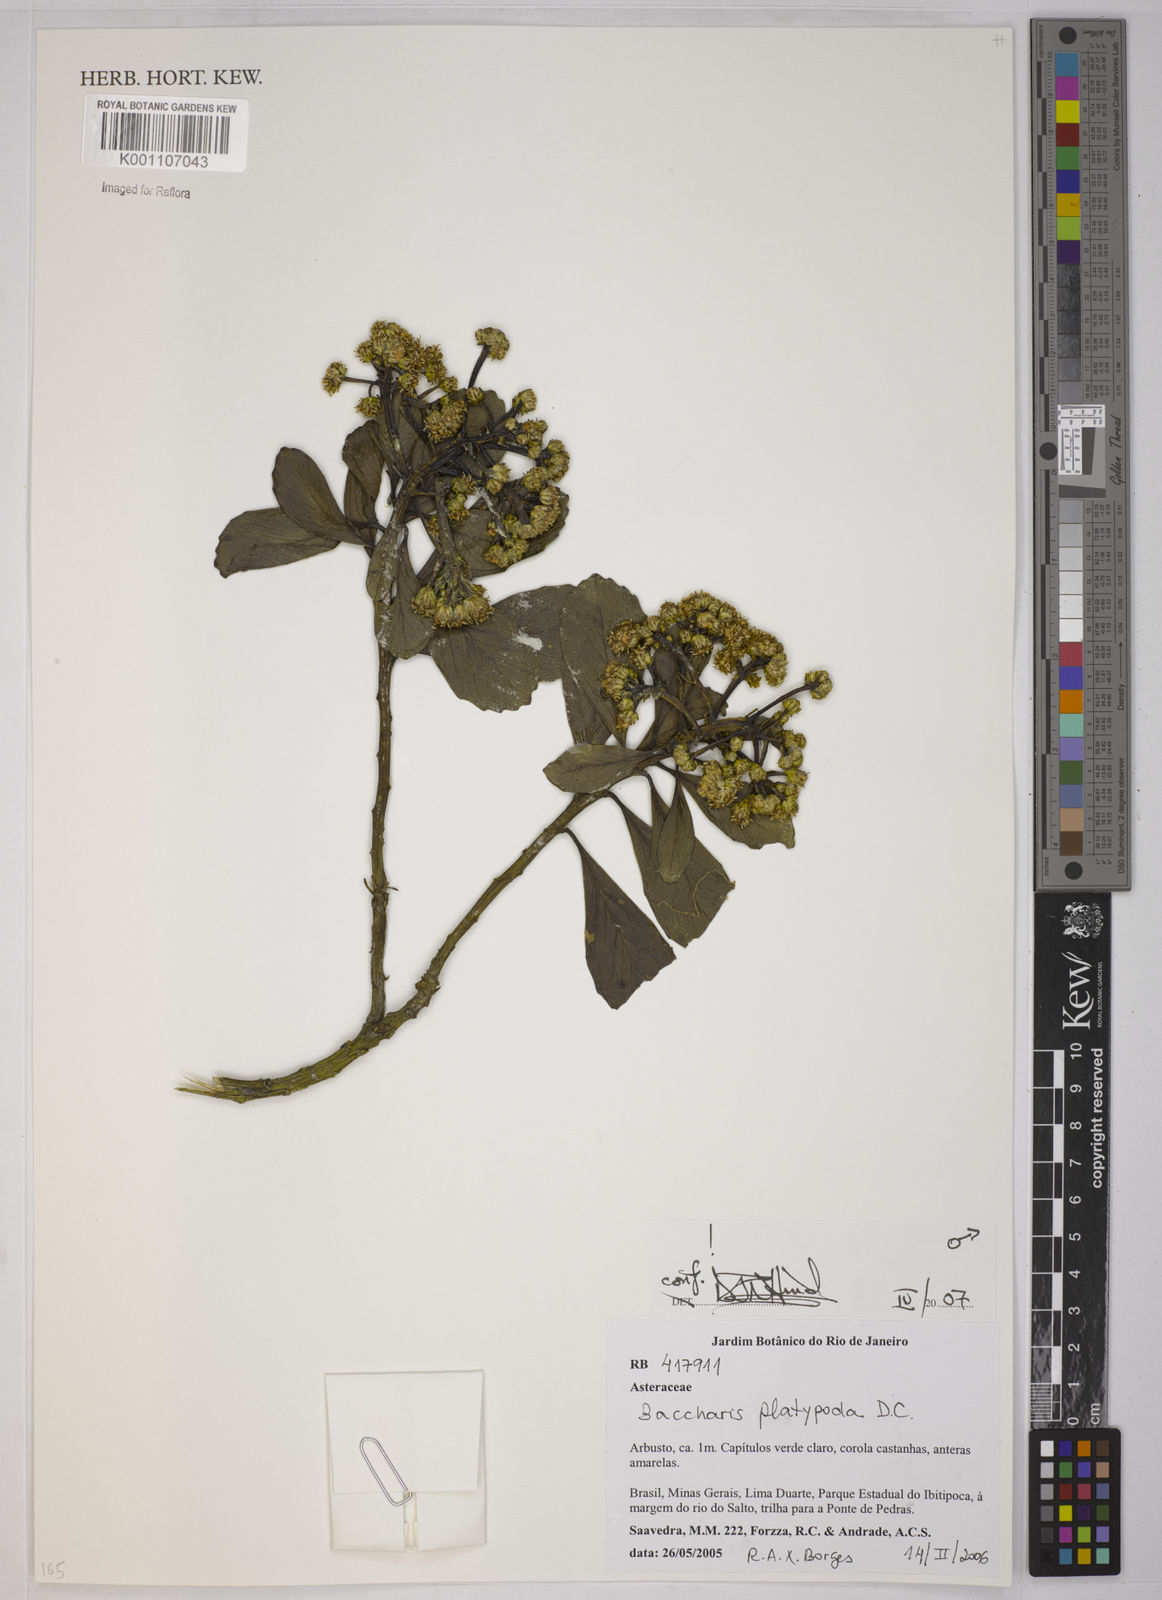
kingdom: Plantae
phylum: Tracheophyta
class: Magnoliopsida
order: Asterales
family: Asteraceae
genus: Baccharis
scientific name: Baccharis platypoda
